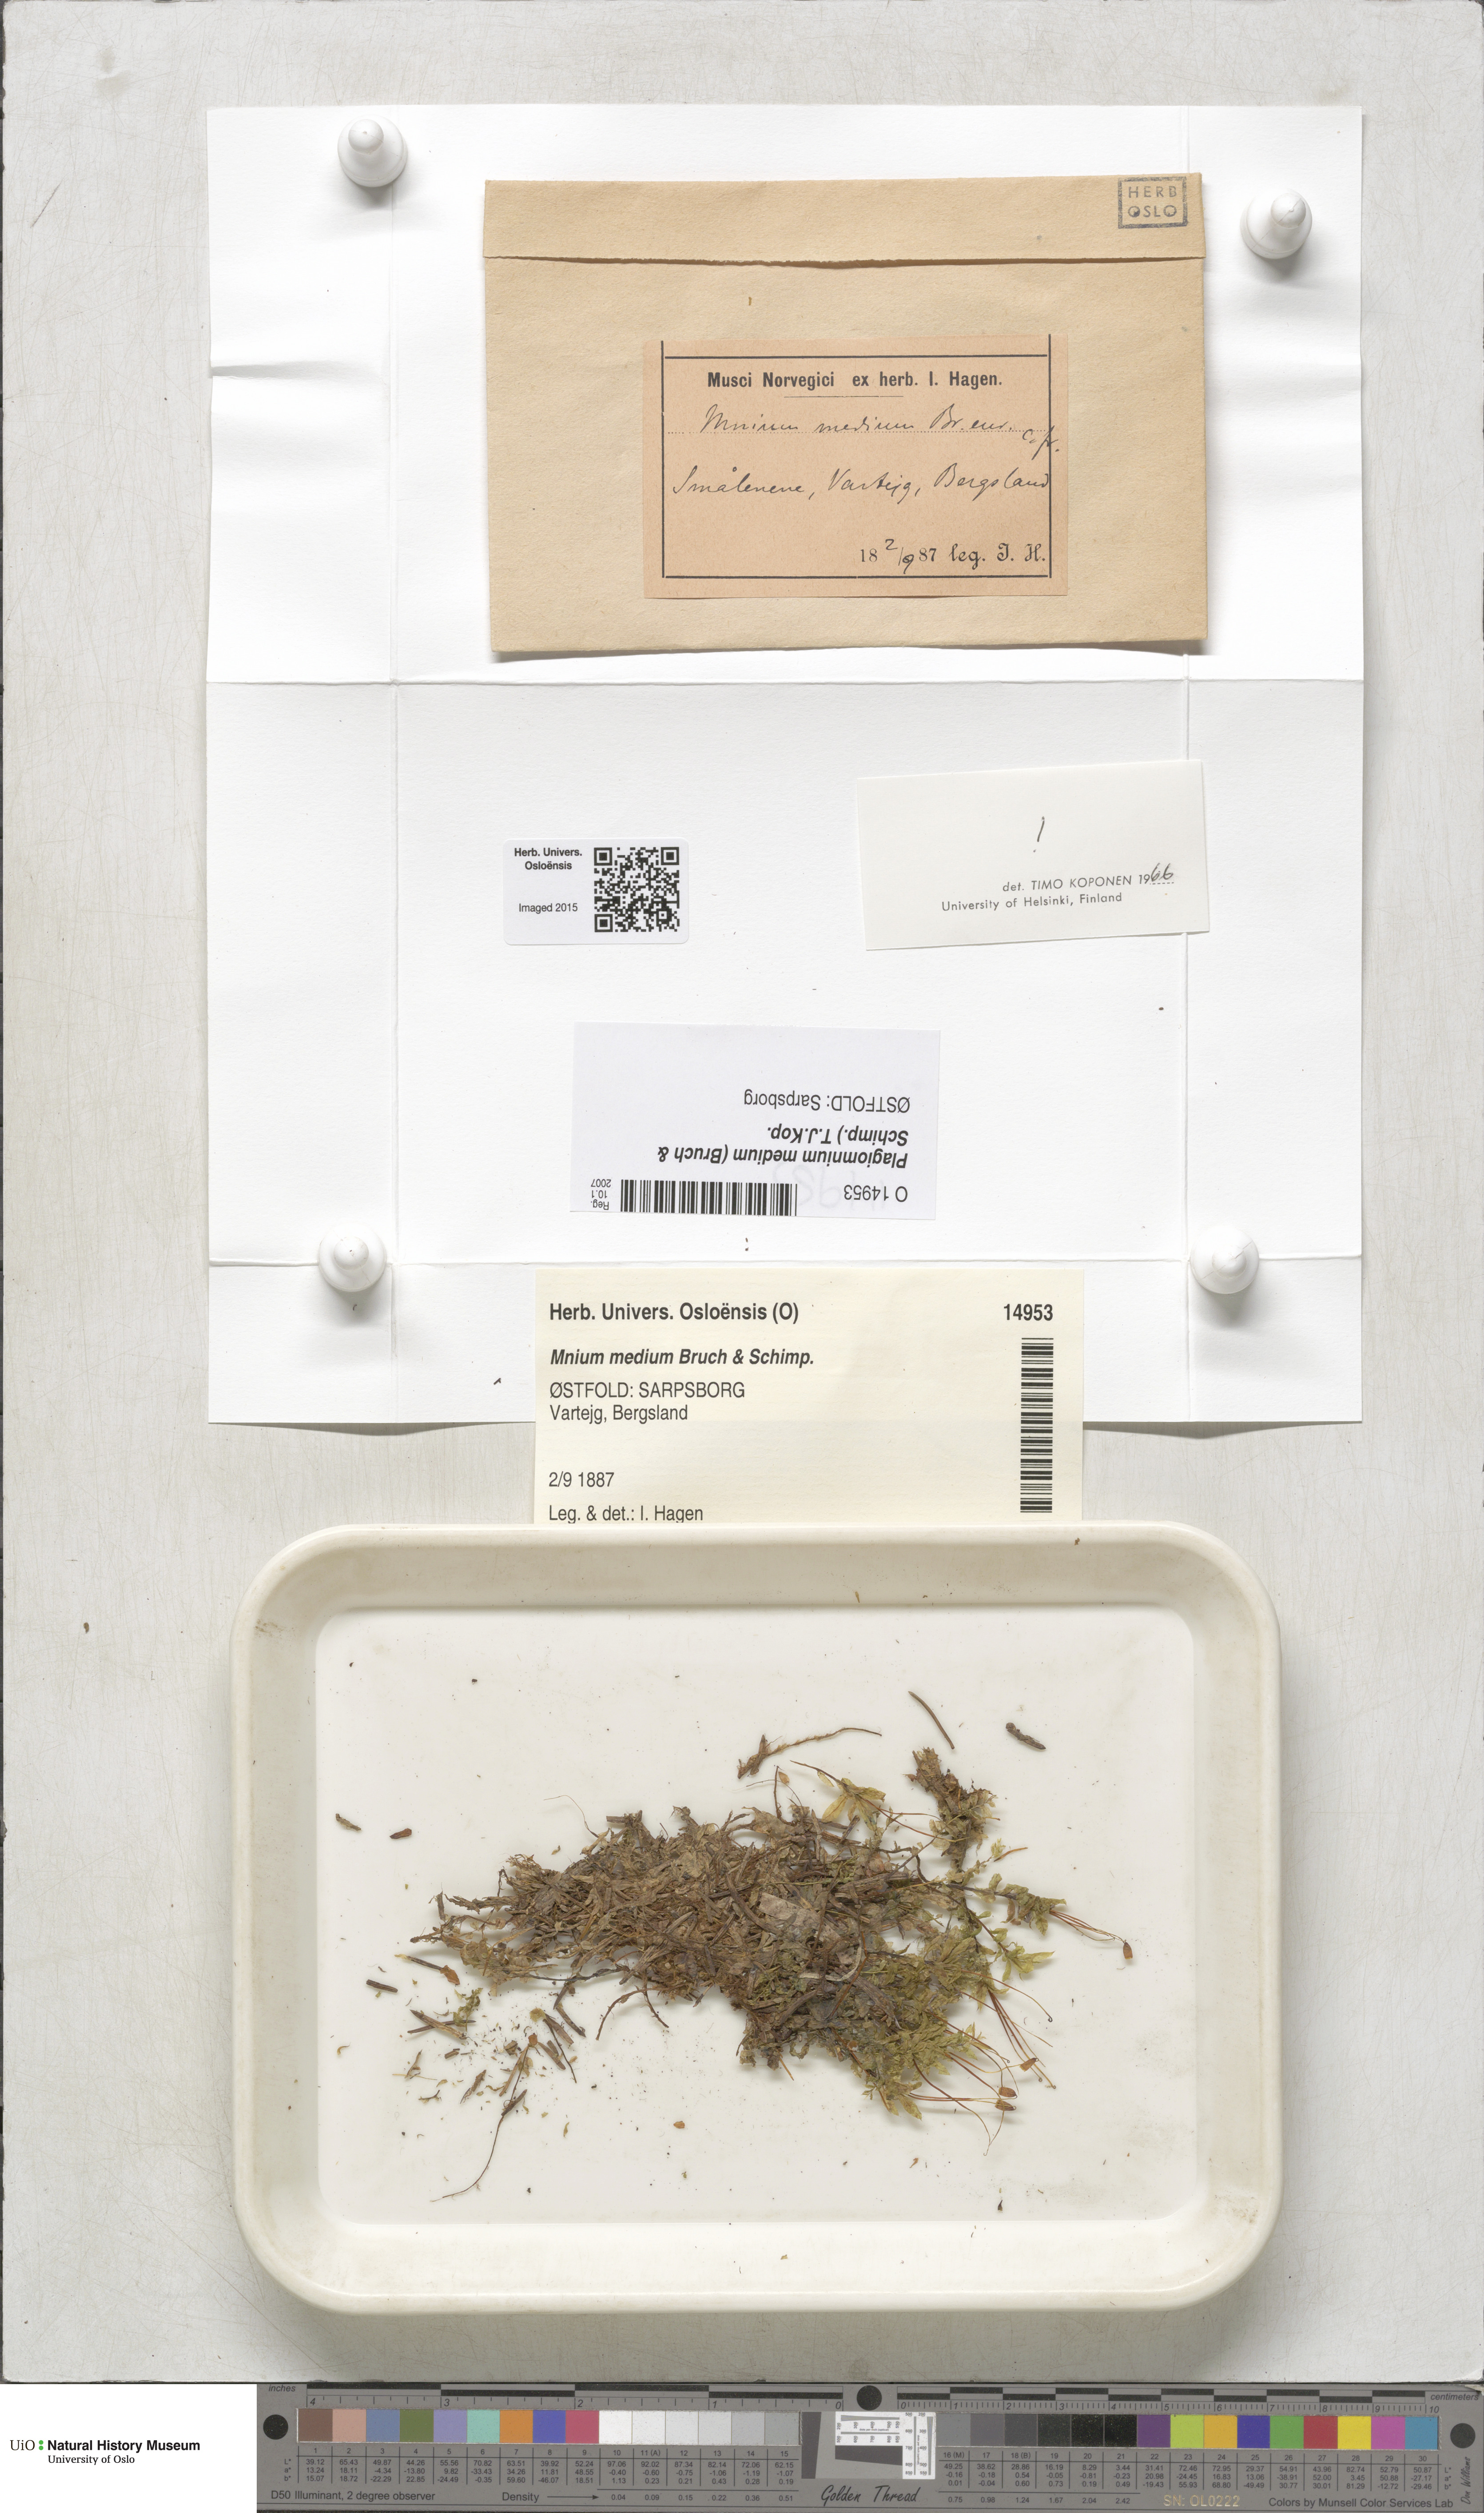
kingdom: Plantae
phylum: Bryophyta
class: Bryopsida
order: Bryales
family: Mniaceae
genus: Plagiomnium
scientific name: Plagiomnium medium
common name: Alpine leafy moss
